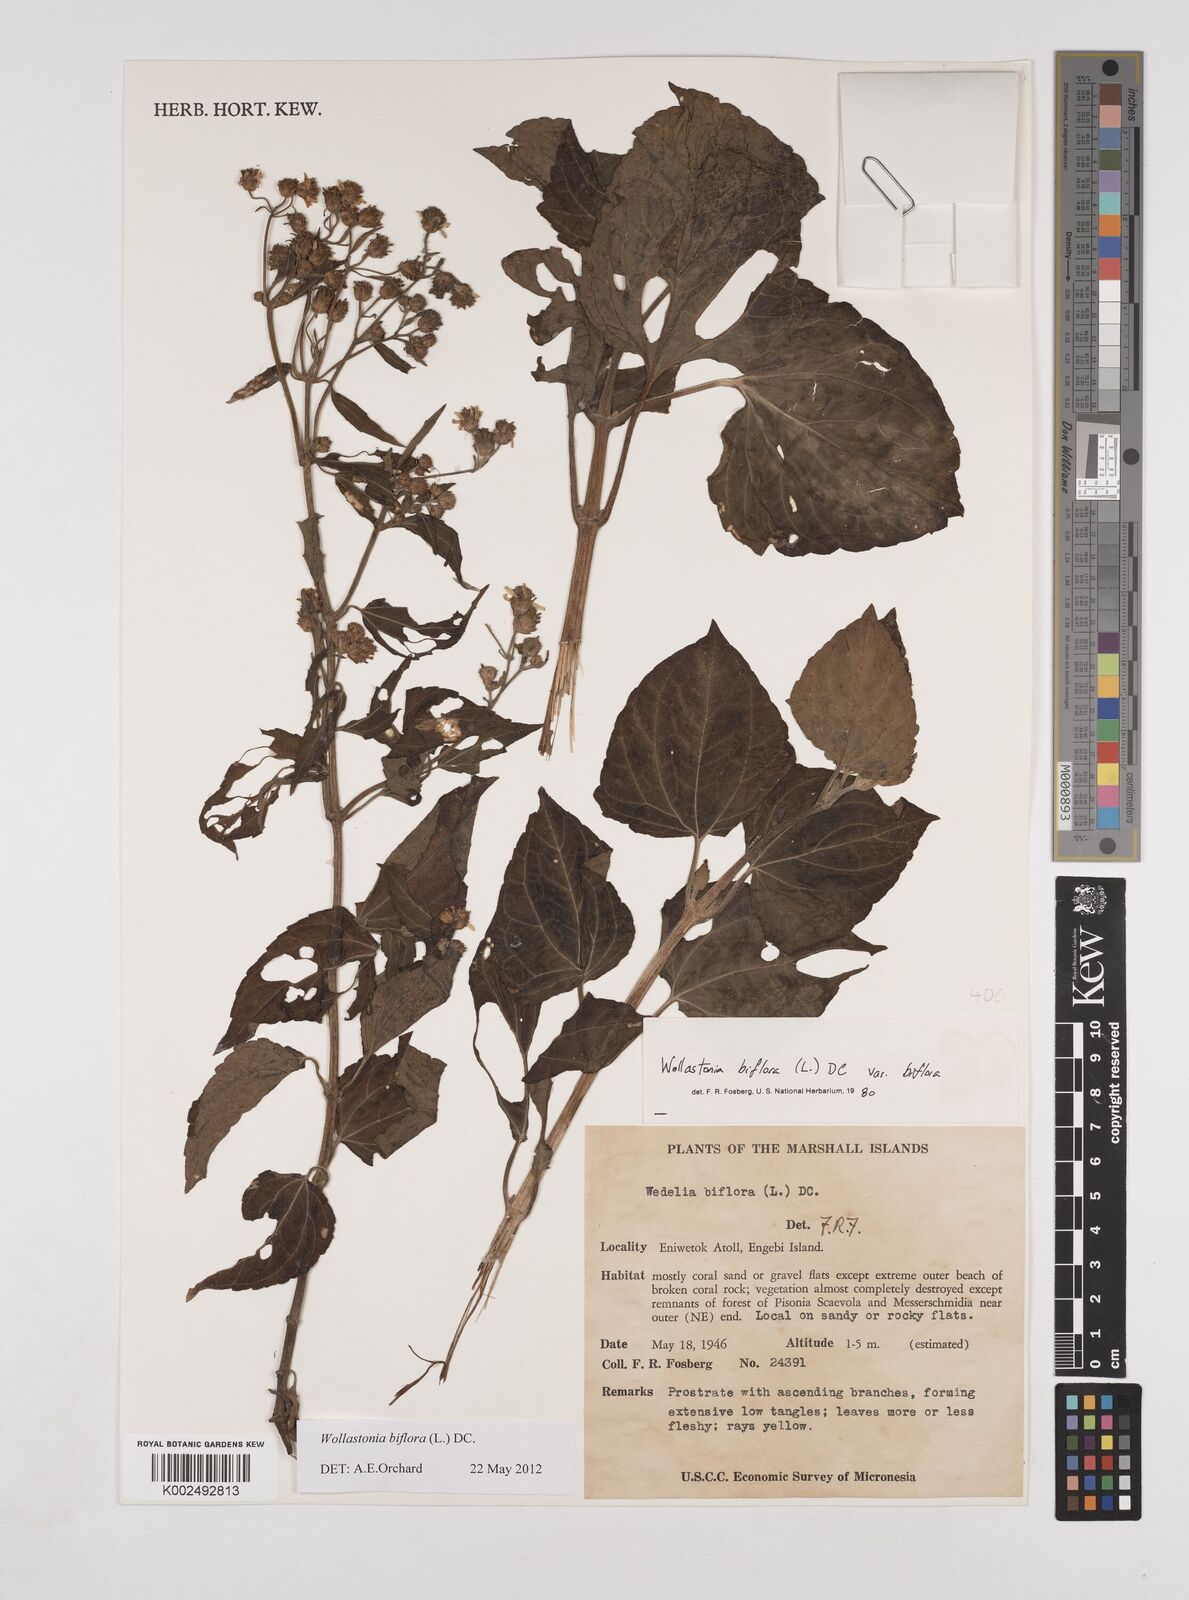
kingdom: Plantae
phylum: Tracheophyta
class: Magnoliopsida
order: Asterales
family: Asteraceae
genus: Wollastonia
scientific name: Wollastonia biflora
